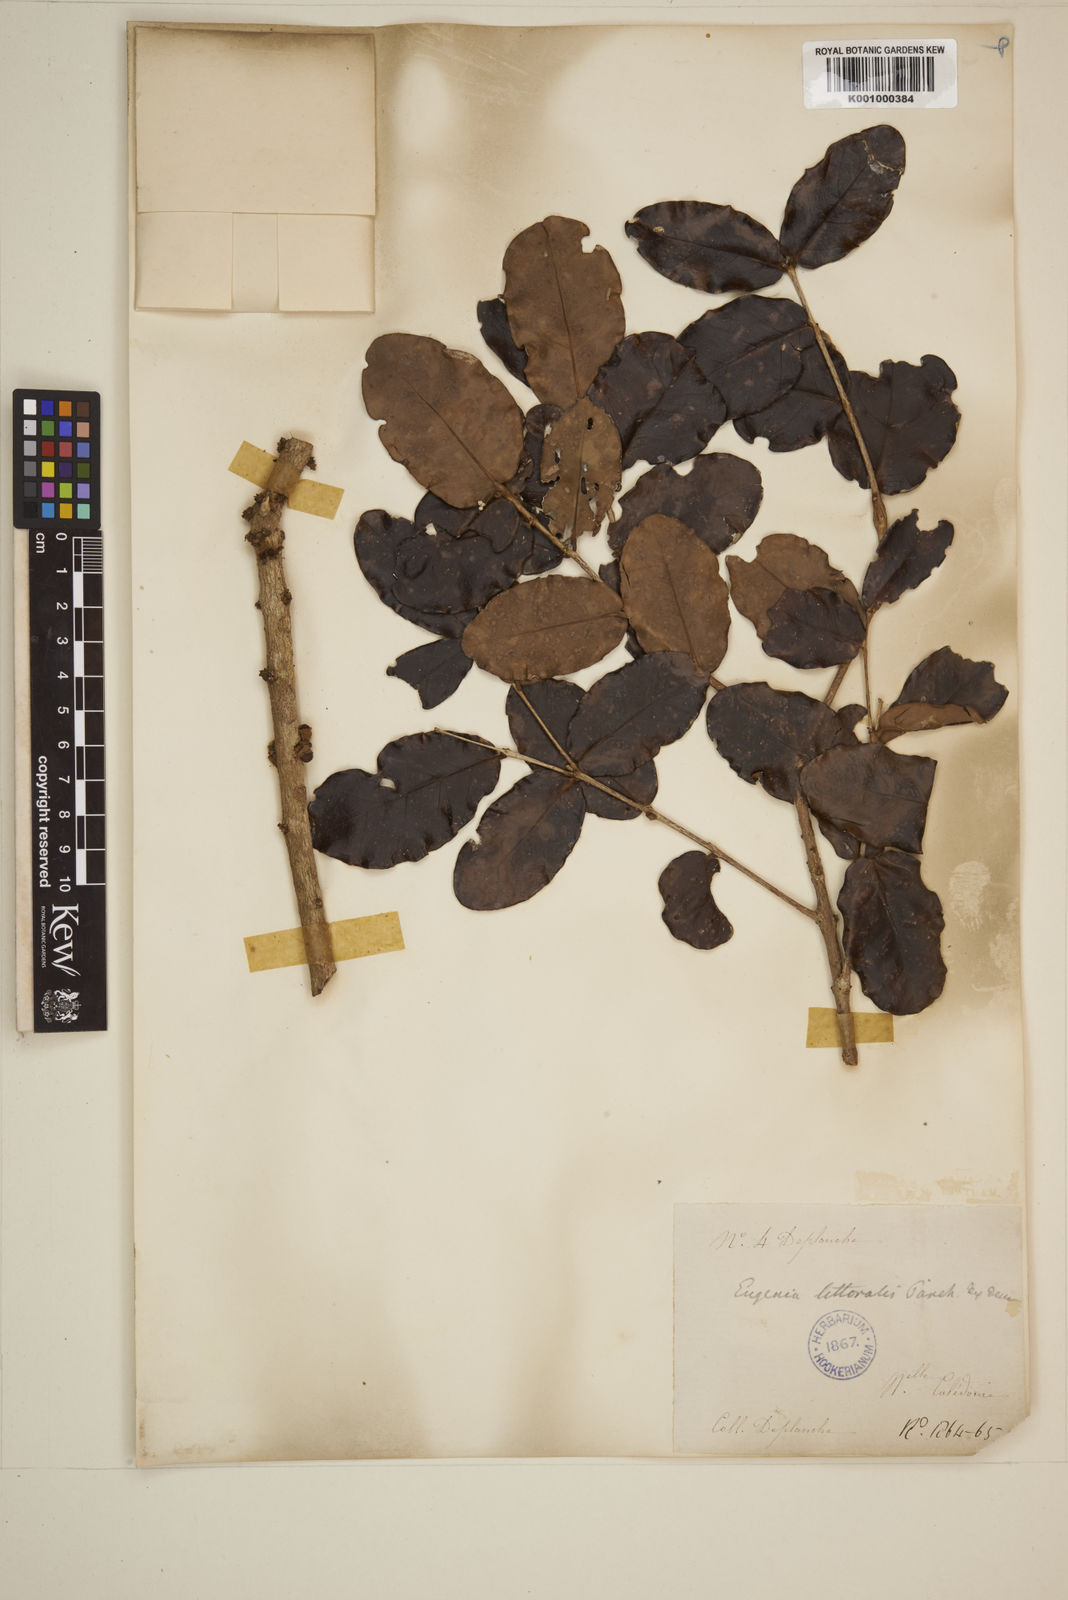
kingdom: Plantae
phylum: Tracheophyta
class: Magnoliopsida
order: Myrtales
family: Myrtaceae
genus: Eugenia
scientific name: Eugenia littoralis
